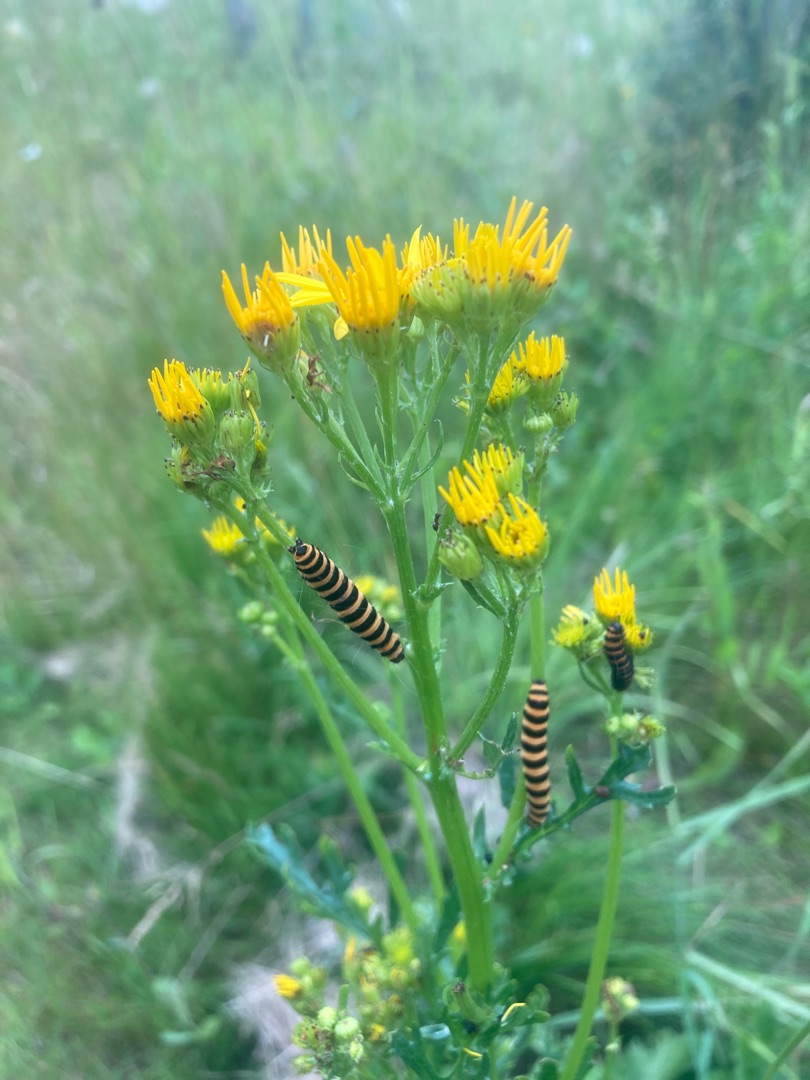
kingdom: Animalia
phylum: Arthropoda
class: Insecta
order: Lepidoptera
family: Erebidae
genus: Tyria
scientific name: Tyria jacobaeae
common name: Blodplet
